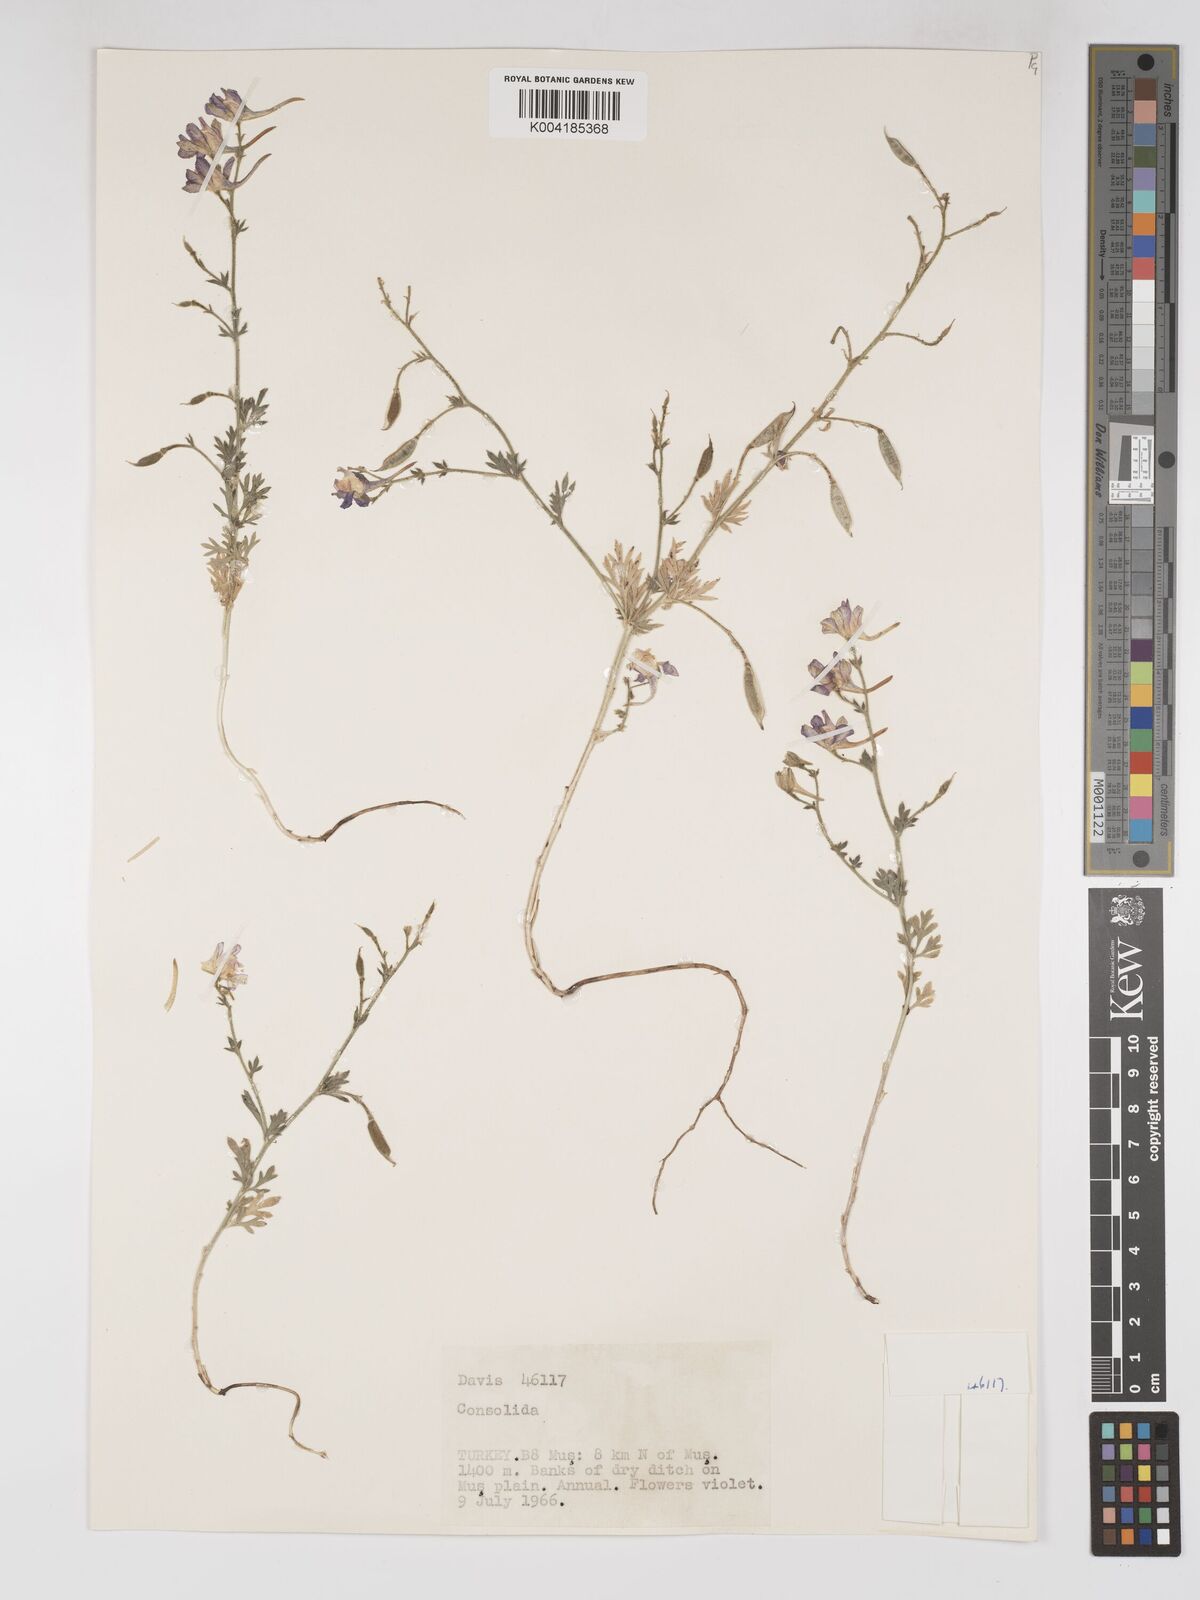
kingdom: Plantae
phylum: Tracheophyta
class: Magnoliopsida
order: Ranunculales
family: Ranunculaceae
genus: Delphinium
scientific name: Delphinium
